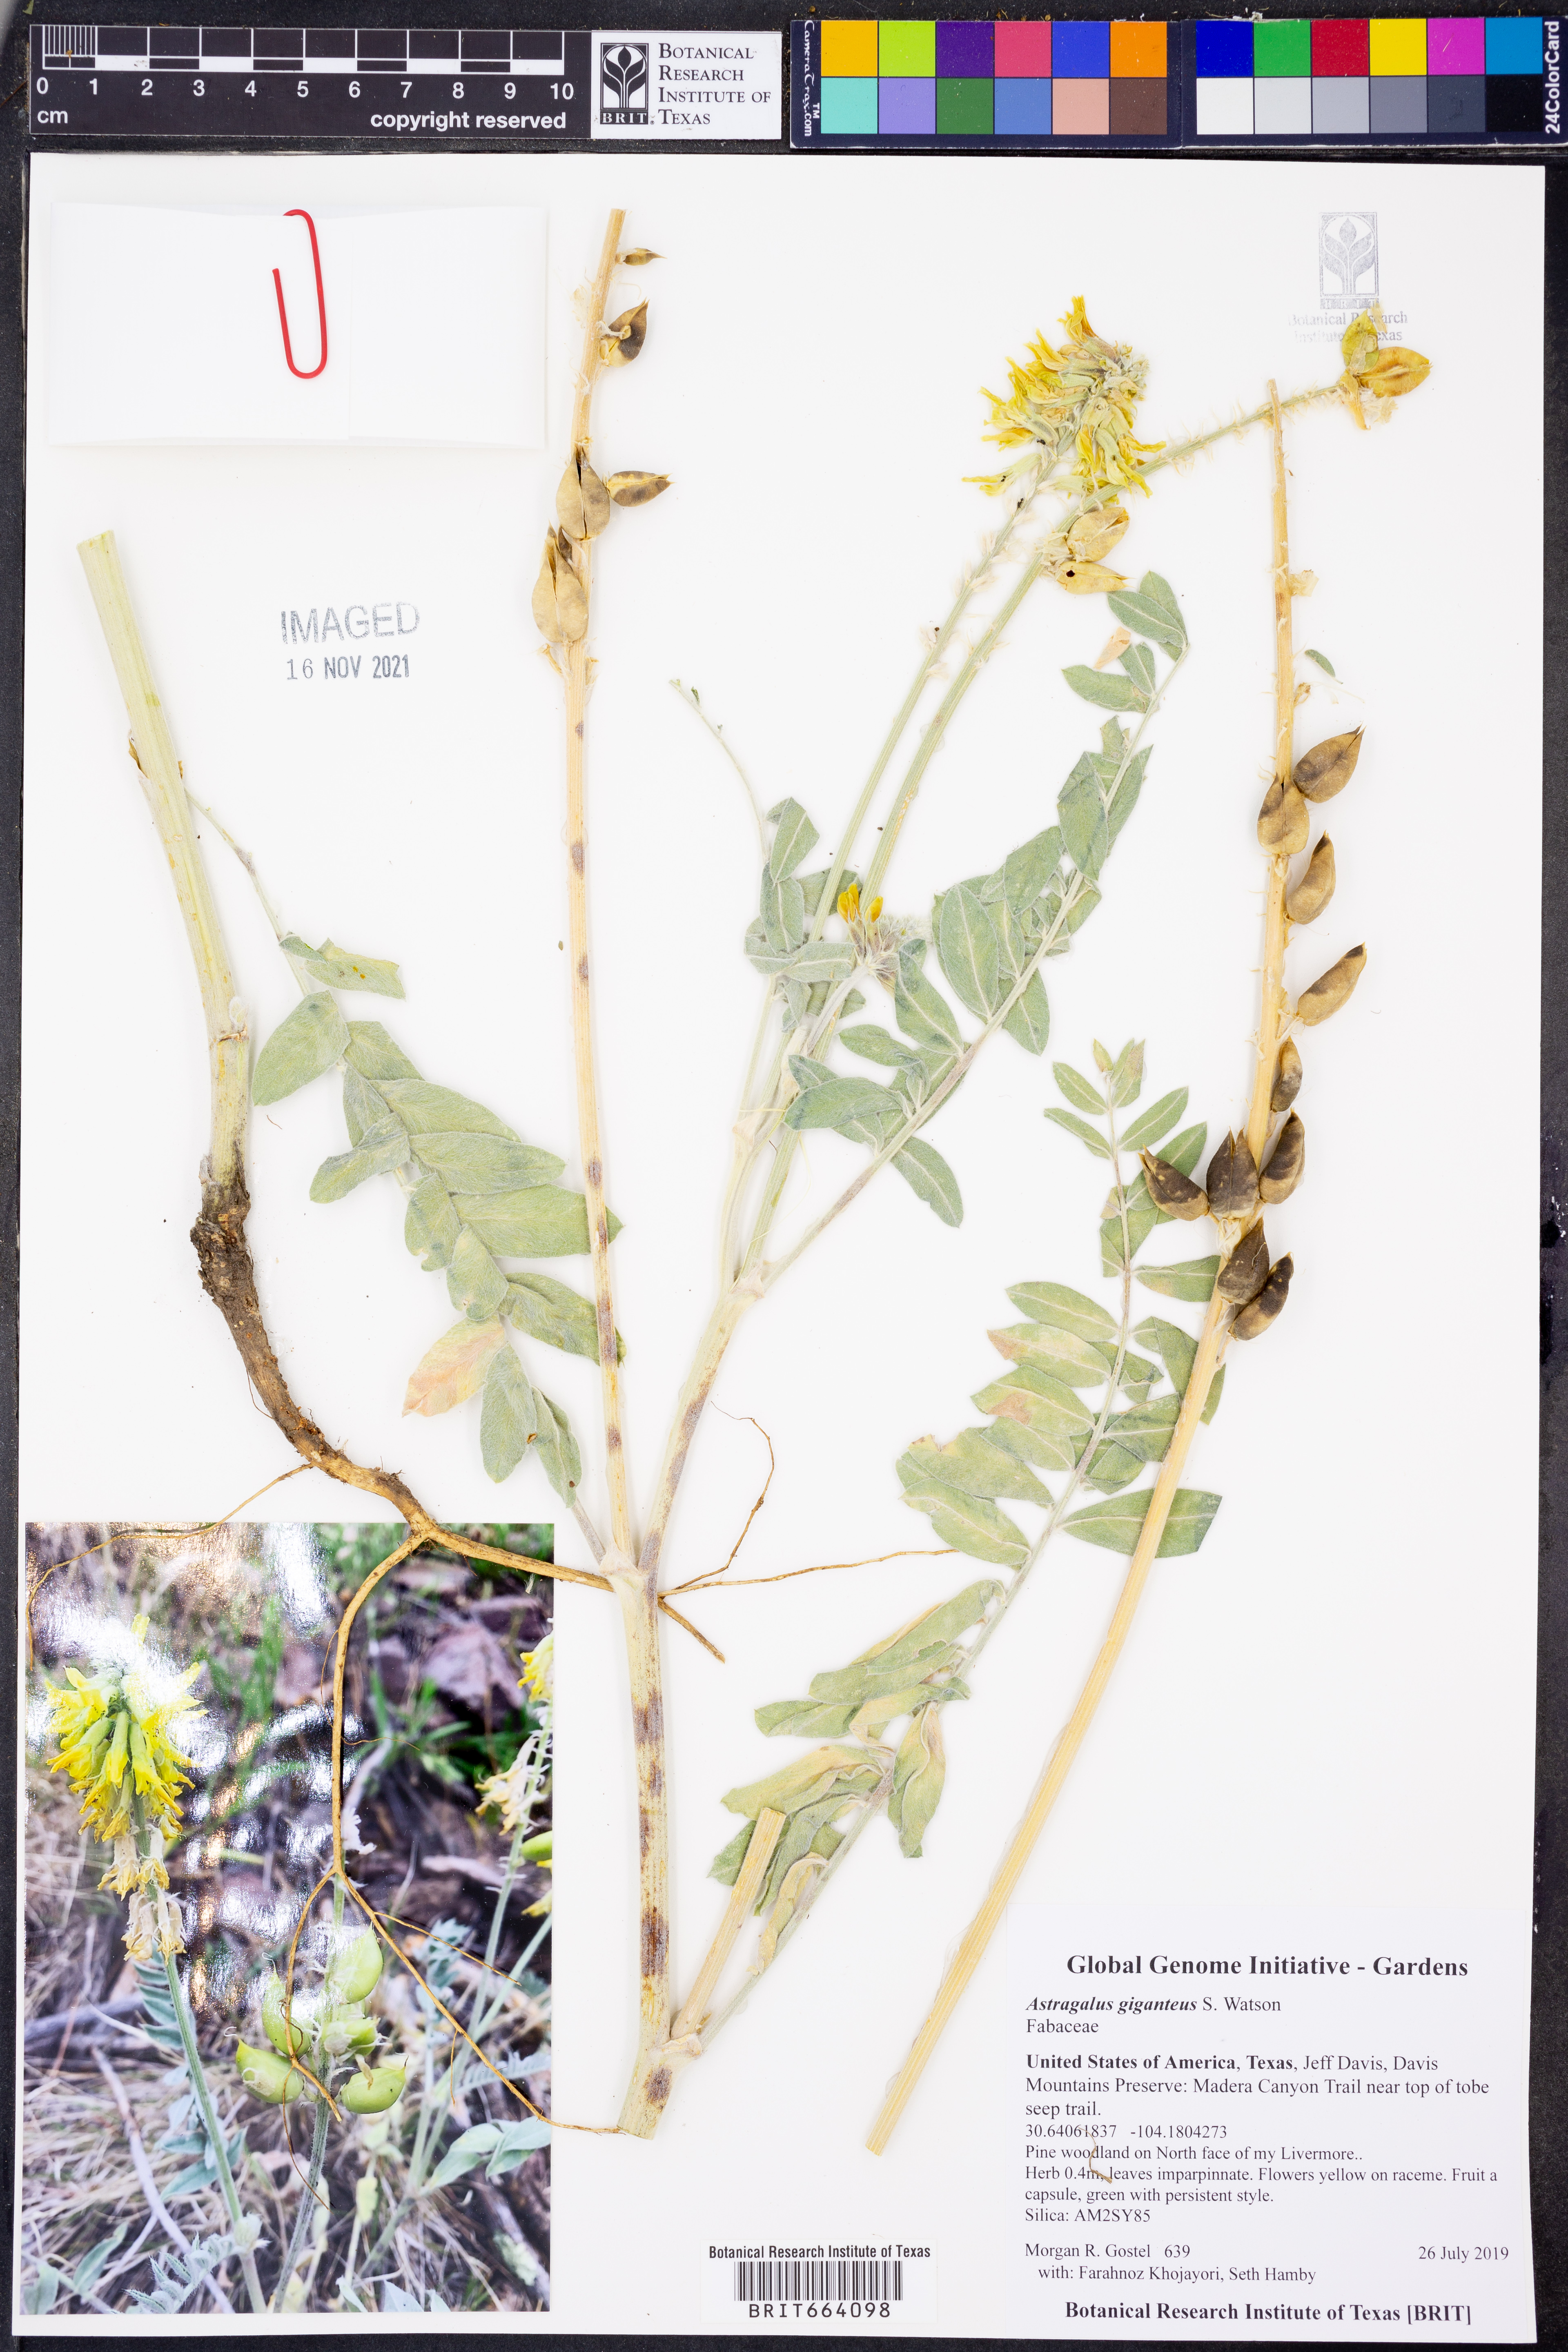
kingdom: Plantae
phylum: Tracheophyta
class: Magnoliopsida
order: Fabales
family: Fabaceae
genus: Astragalus
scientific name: Astragalus giganteus
